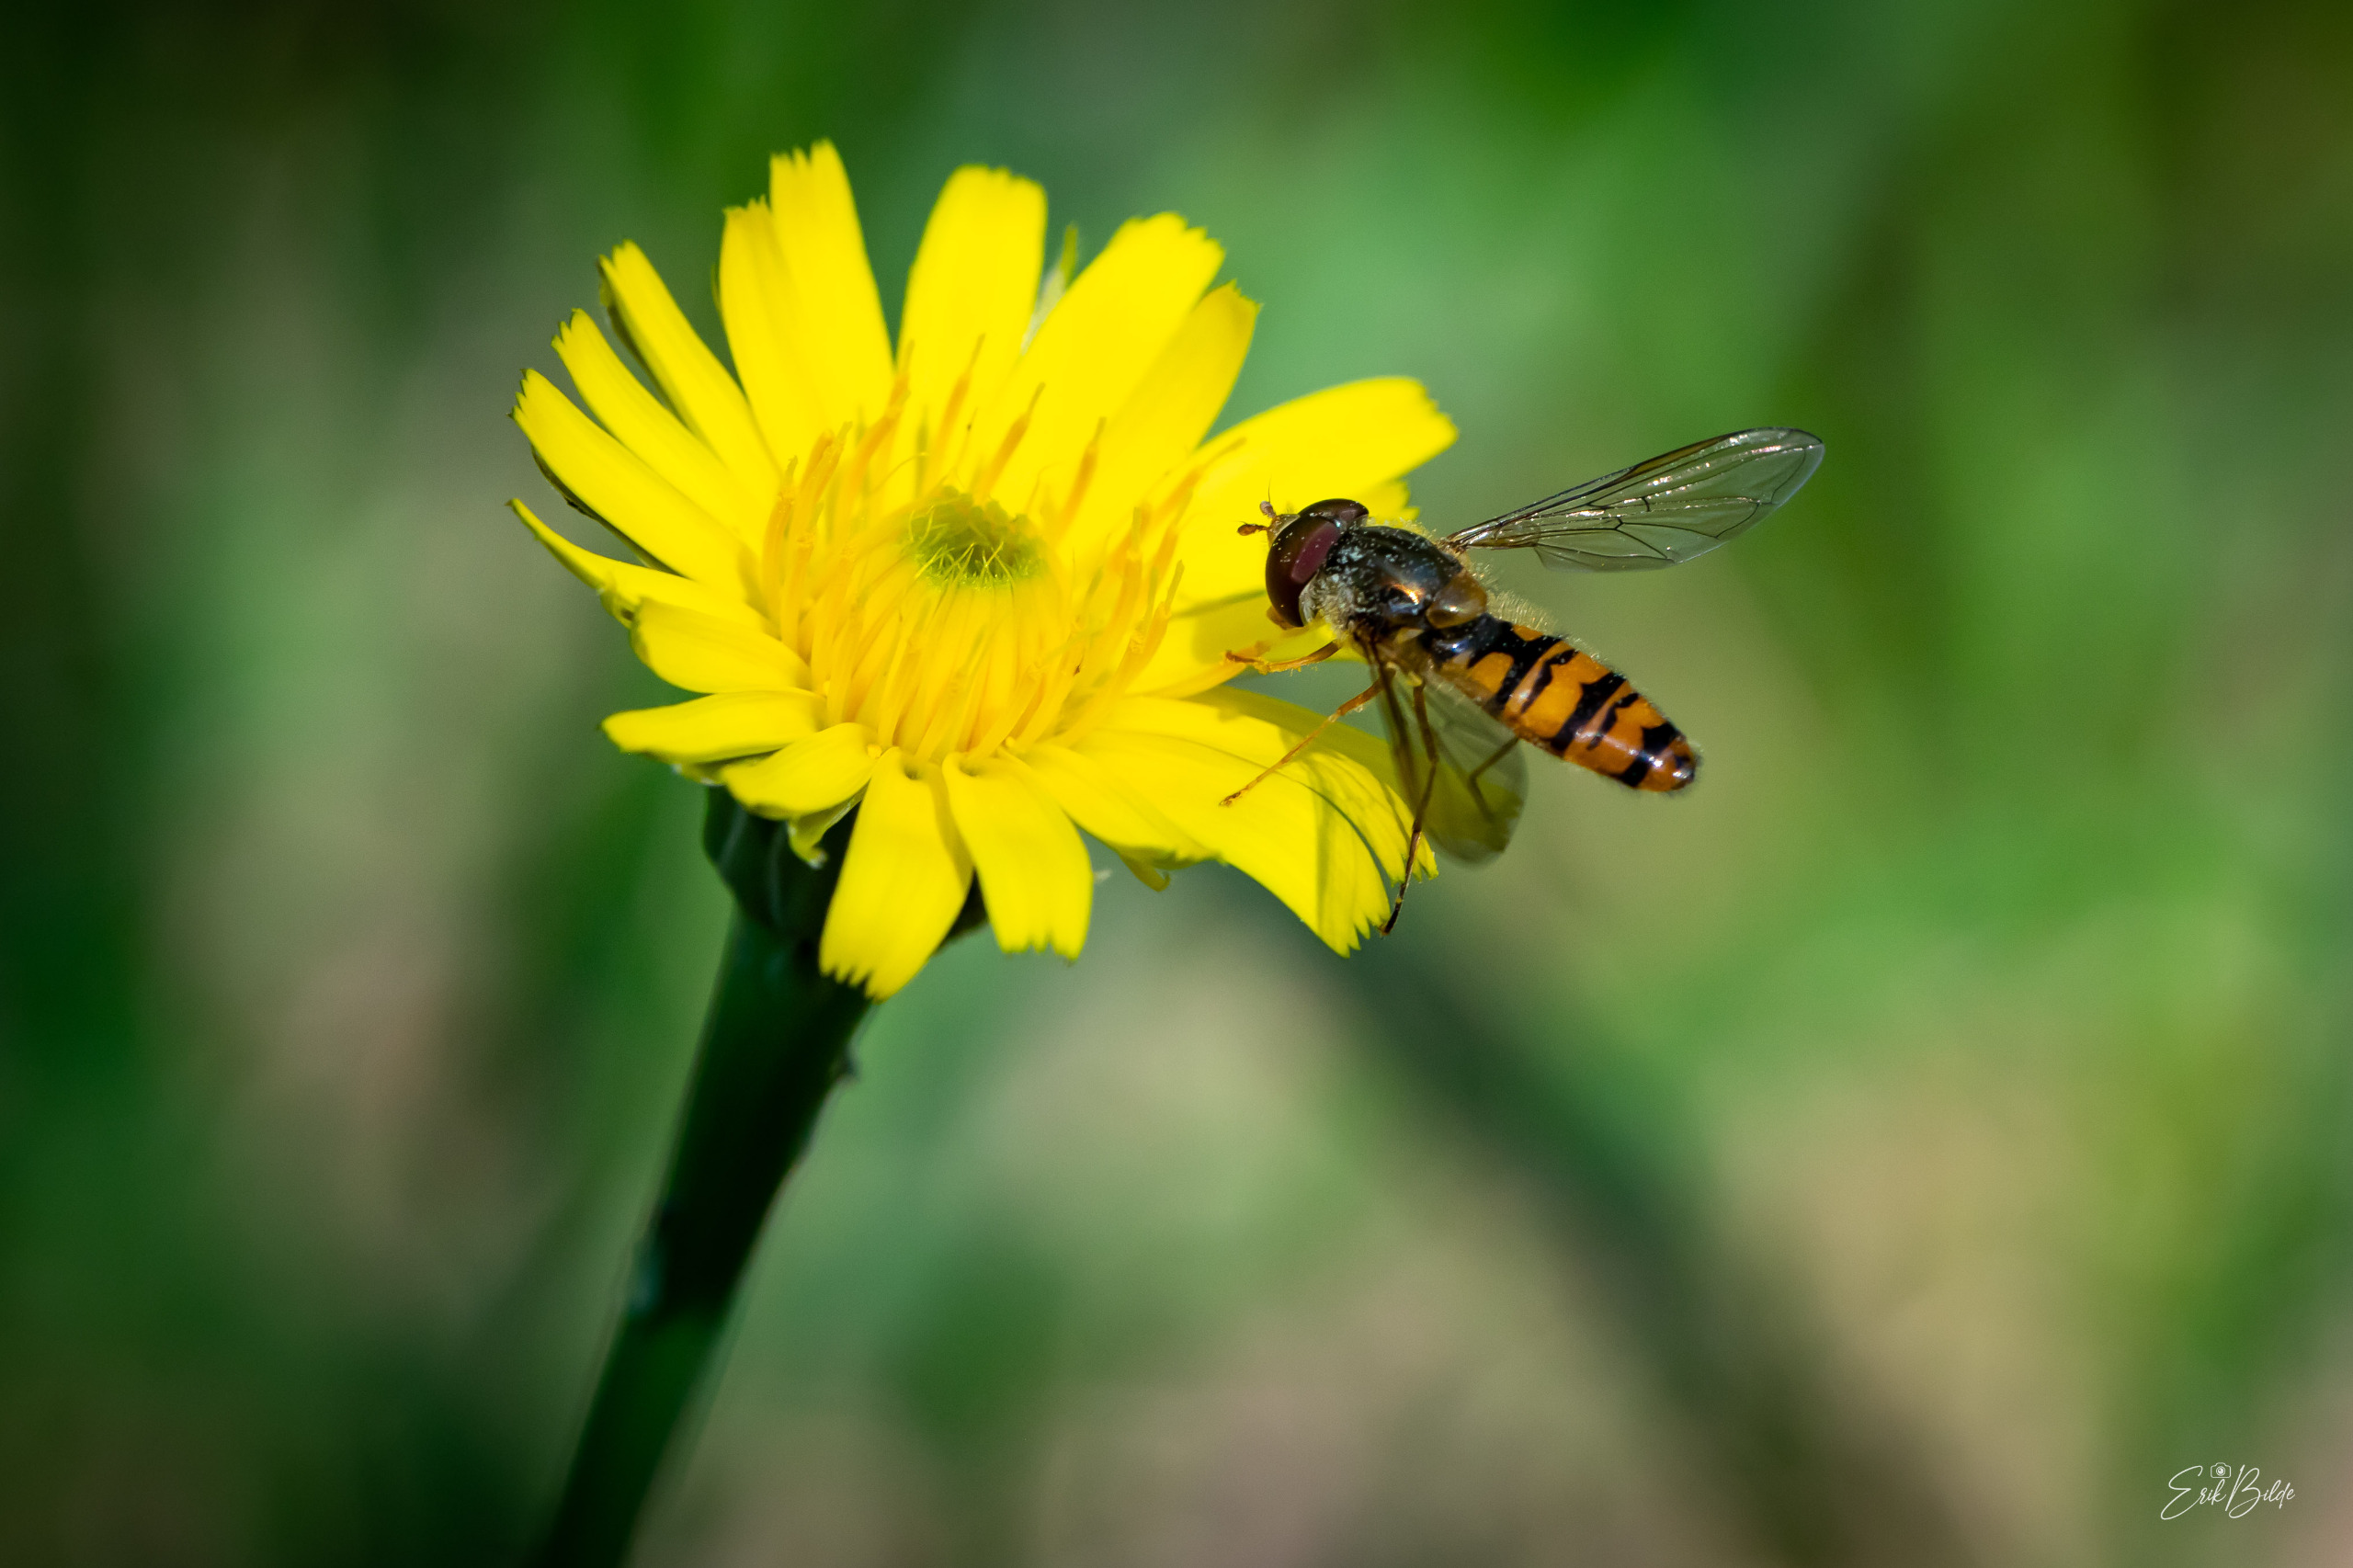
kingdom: Animalia
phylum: Arthropoda
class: Insecta
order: Diptera
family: Syrphidae
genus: Episyrphus
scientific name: Episyrphus balteatus
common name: Dobbeltbåndet svirreflue
